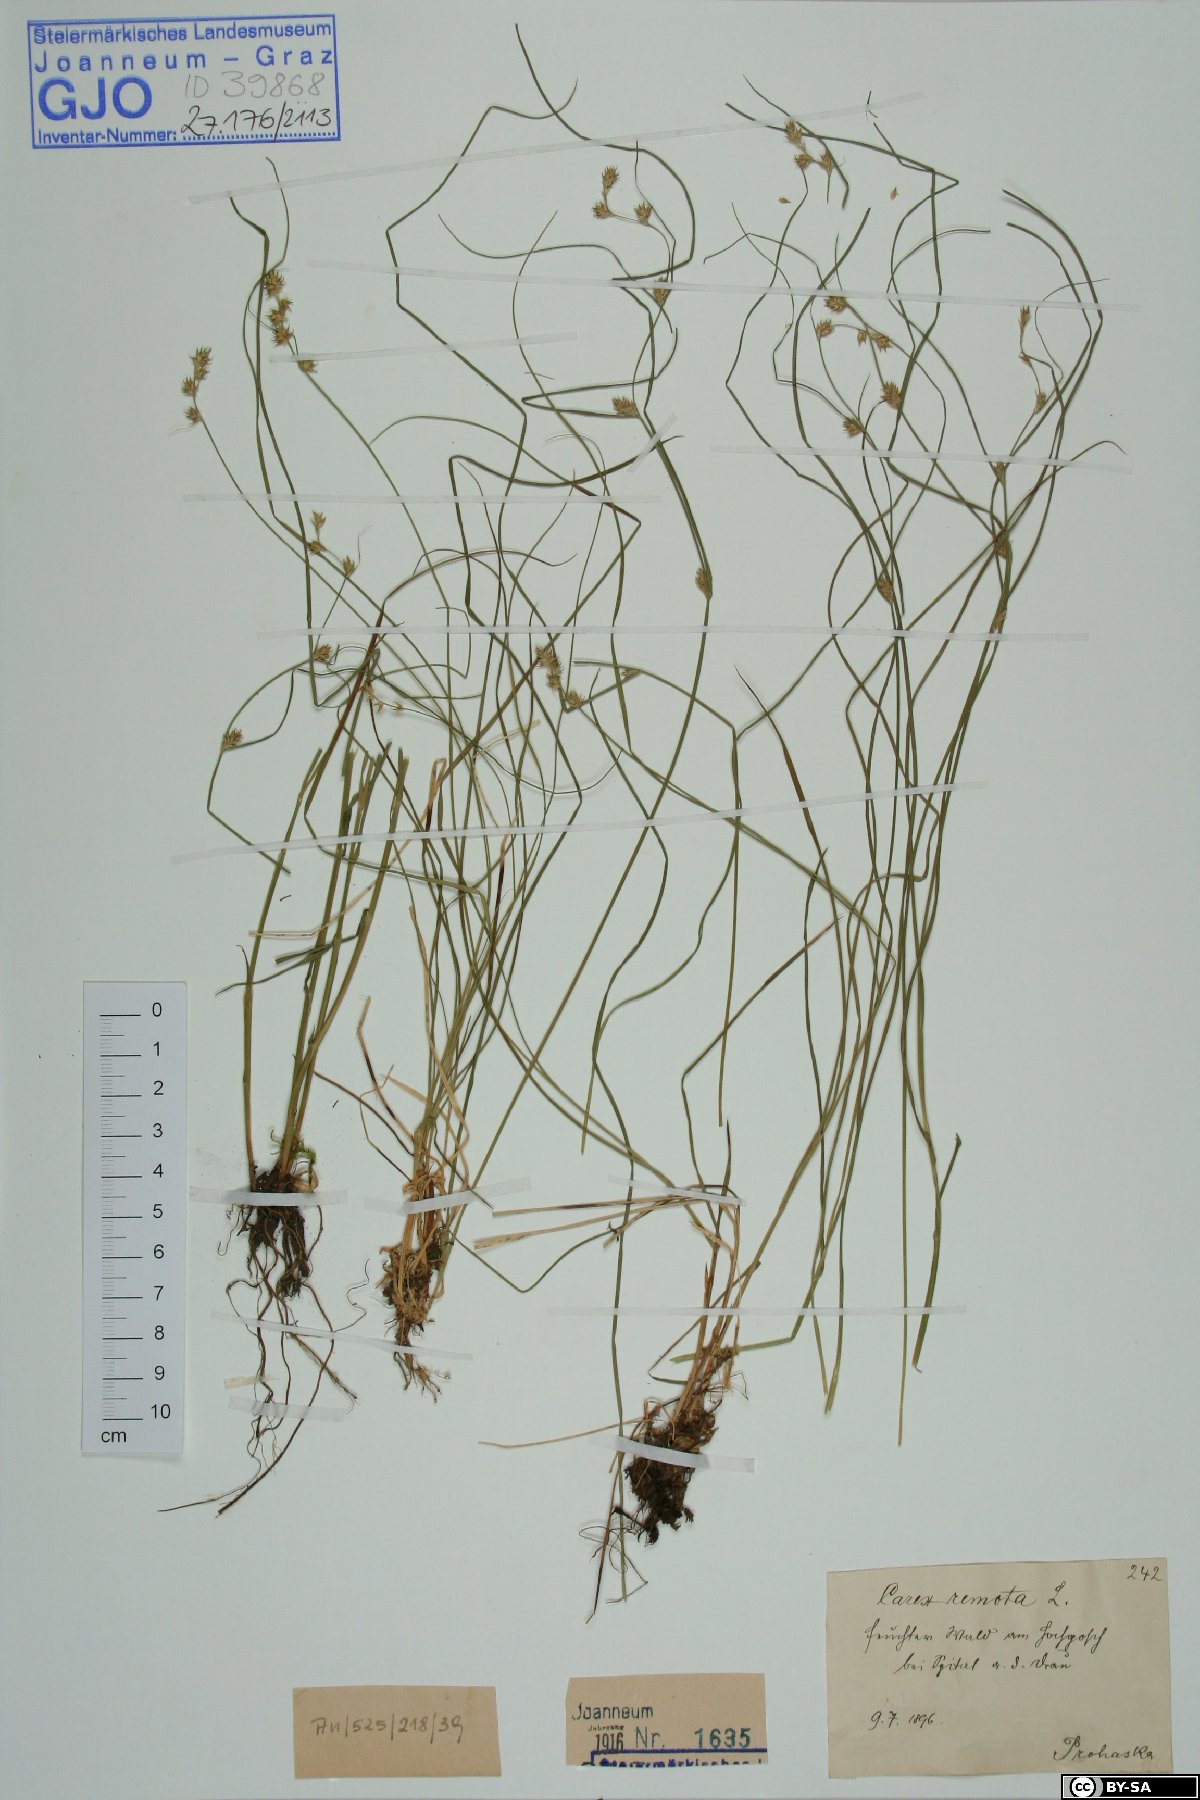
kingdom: Plantae
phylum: Tracheophyta
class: Liliopsida
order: Poales
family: Cyperaceae
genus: Carex
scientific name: Carex remota
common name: Remote sedge
